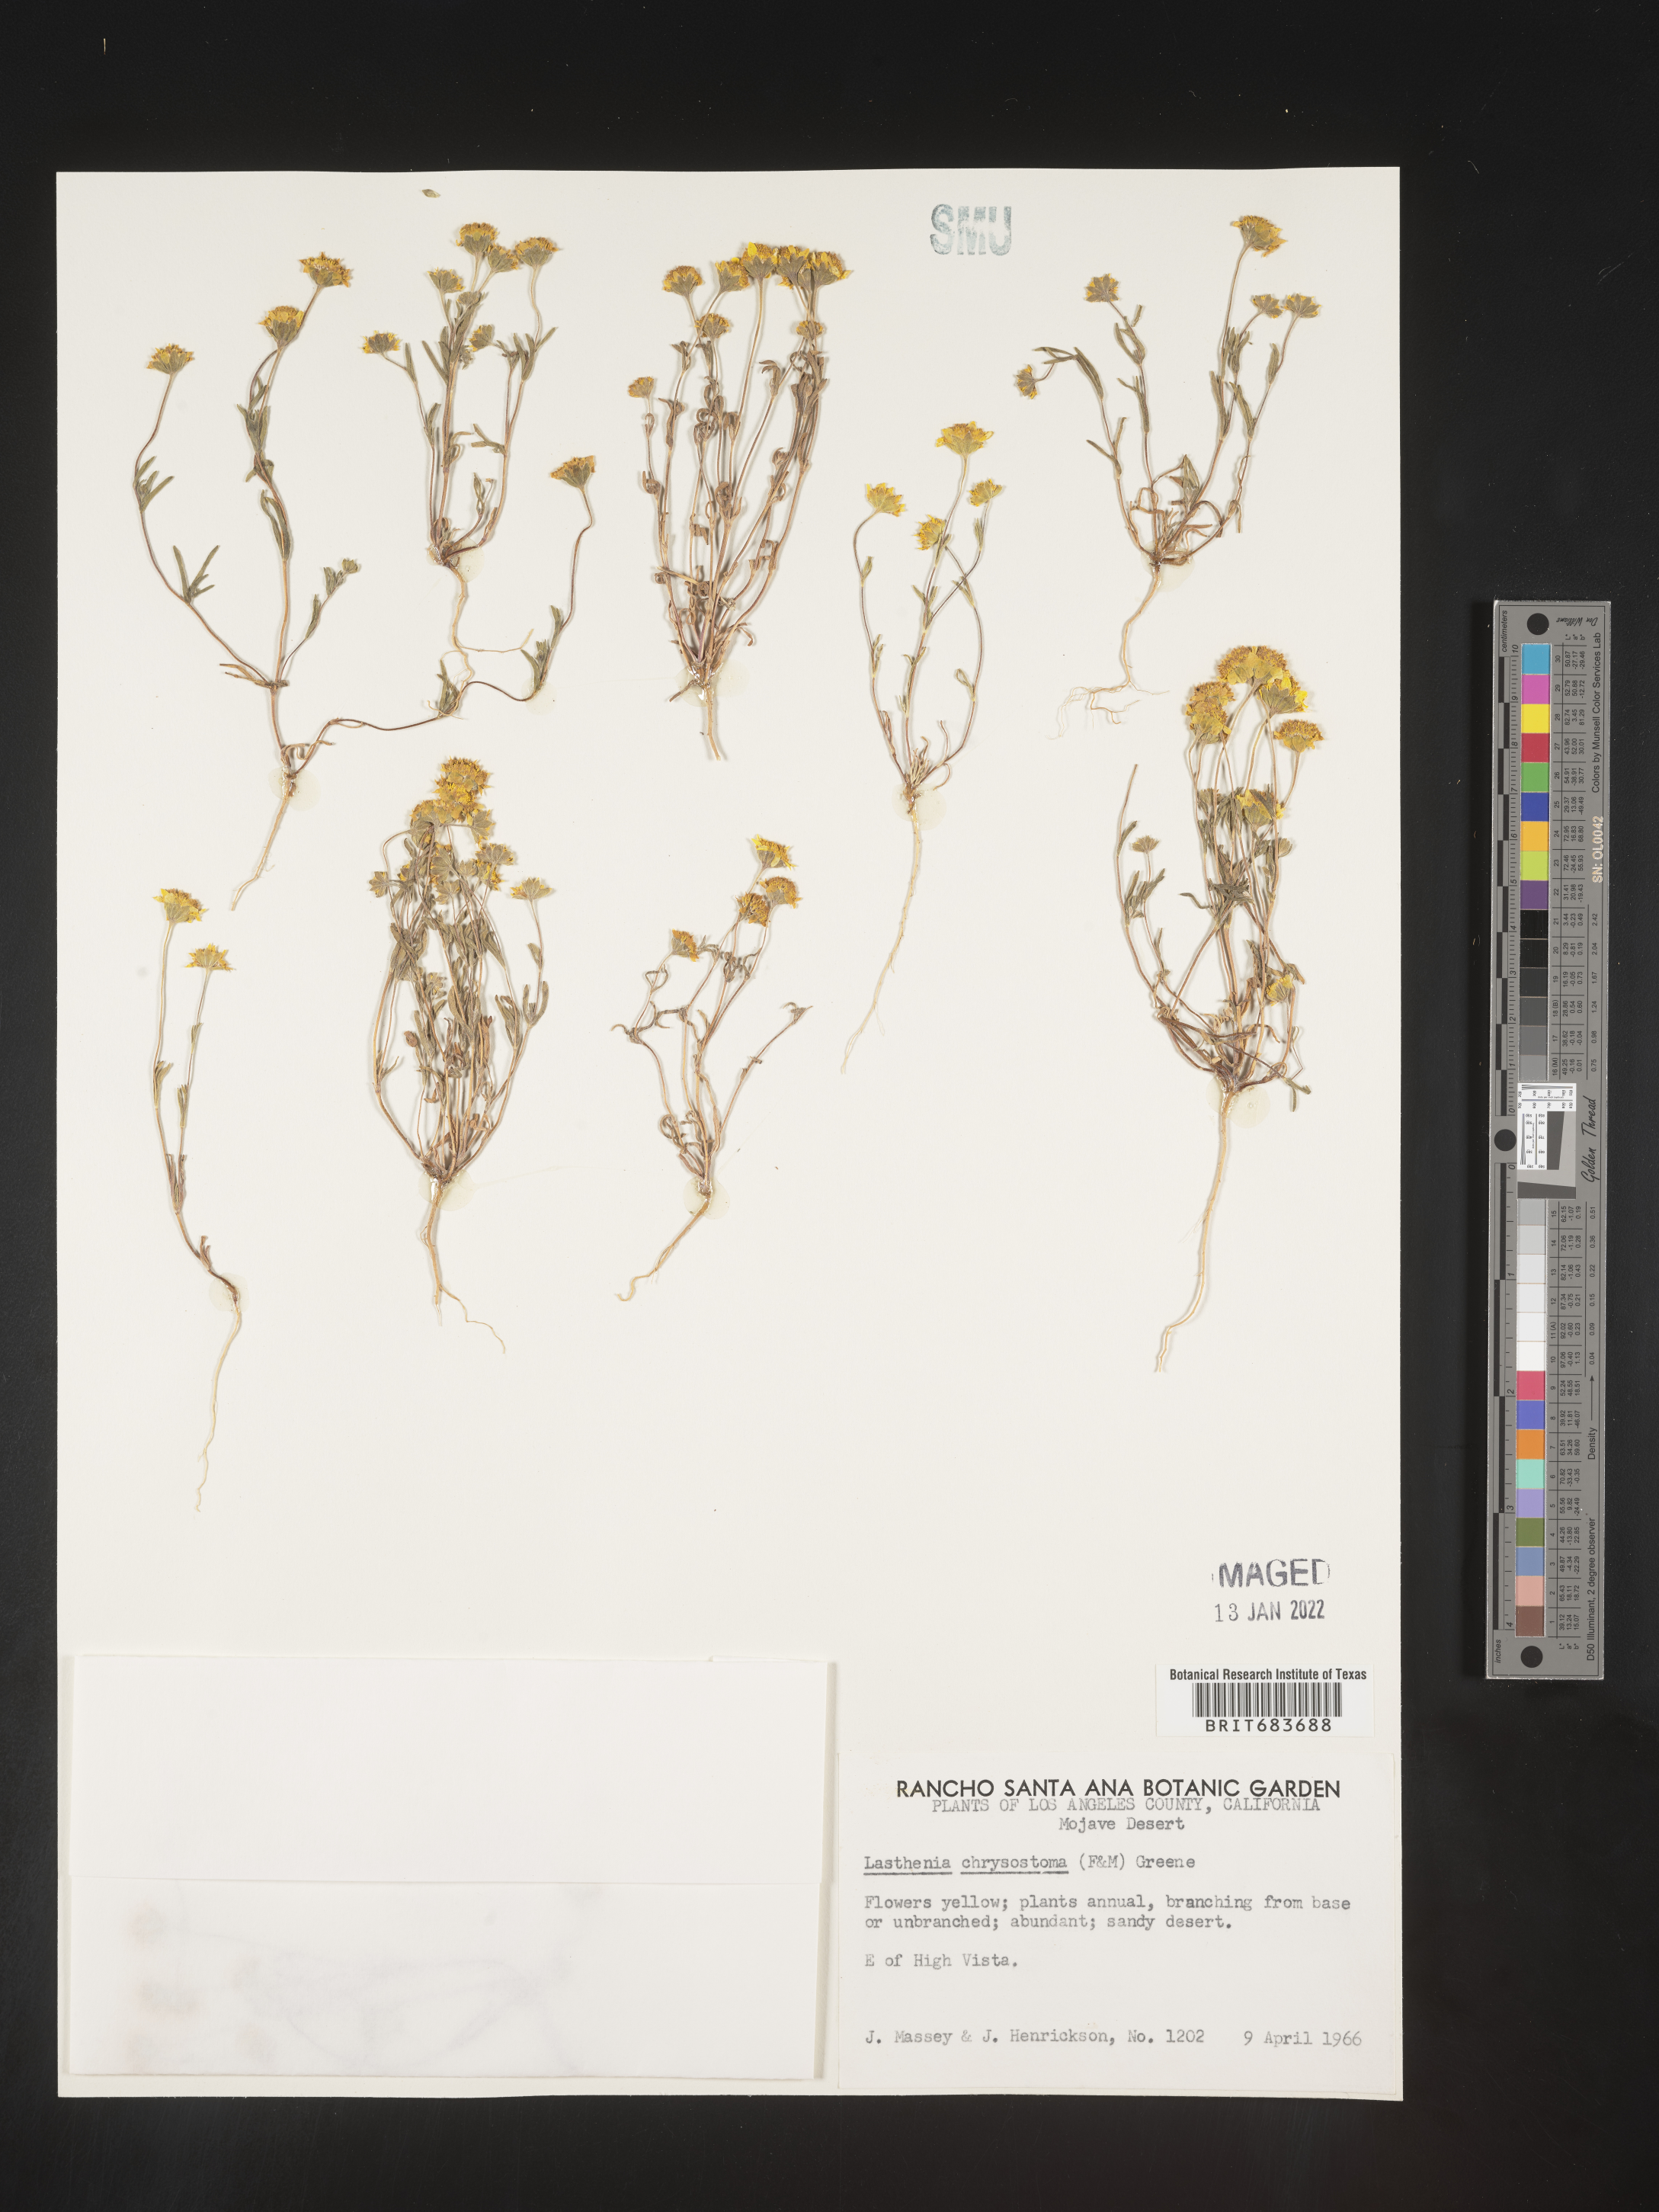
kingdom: Plantae
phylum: Tracheophyta
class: Magnoliopsida
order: Asterales
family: Asteraceae
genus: Lasthenia
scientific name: Lasthenia
